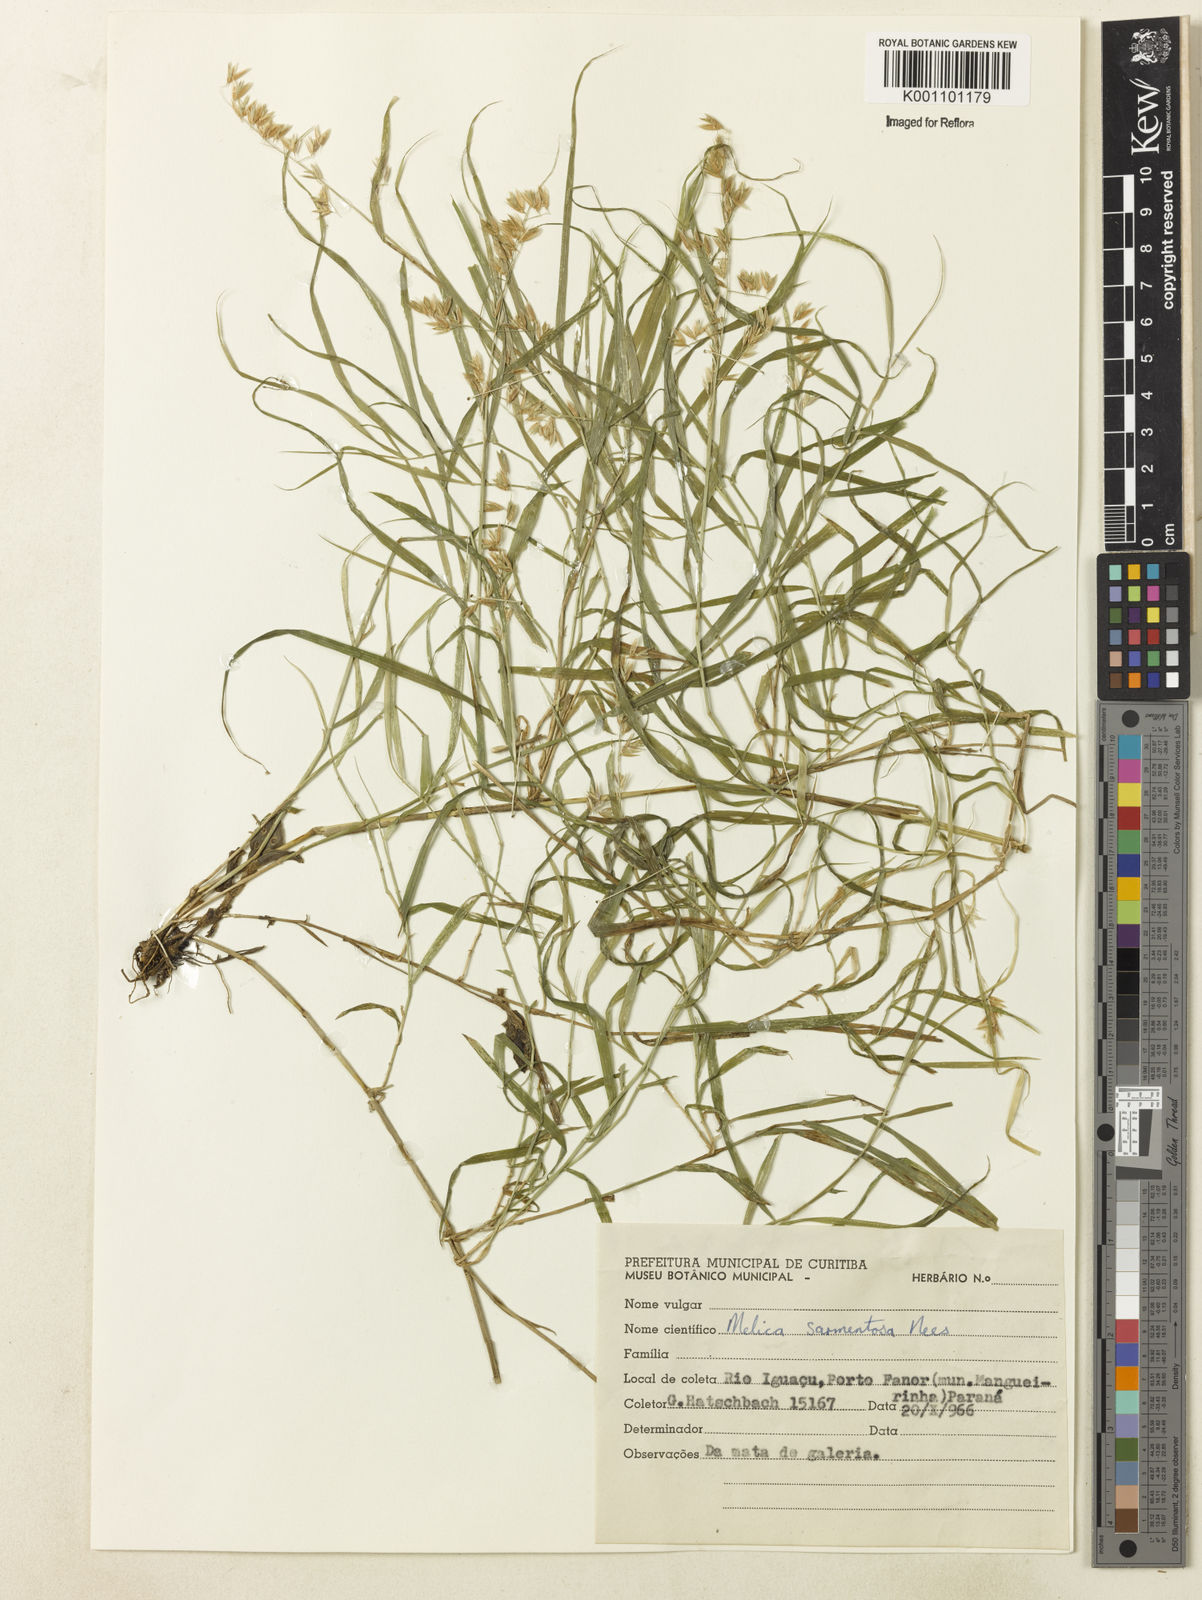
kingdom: Plantae
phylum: Tracheophyta
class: Liliopsida
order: Poales
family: Poaceae
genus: Melica
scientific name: Melica sarmentosa
